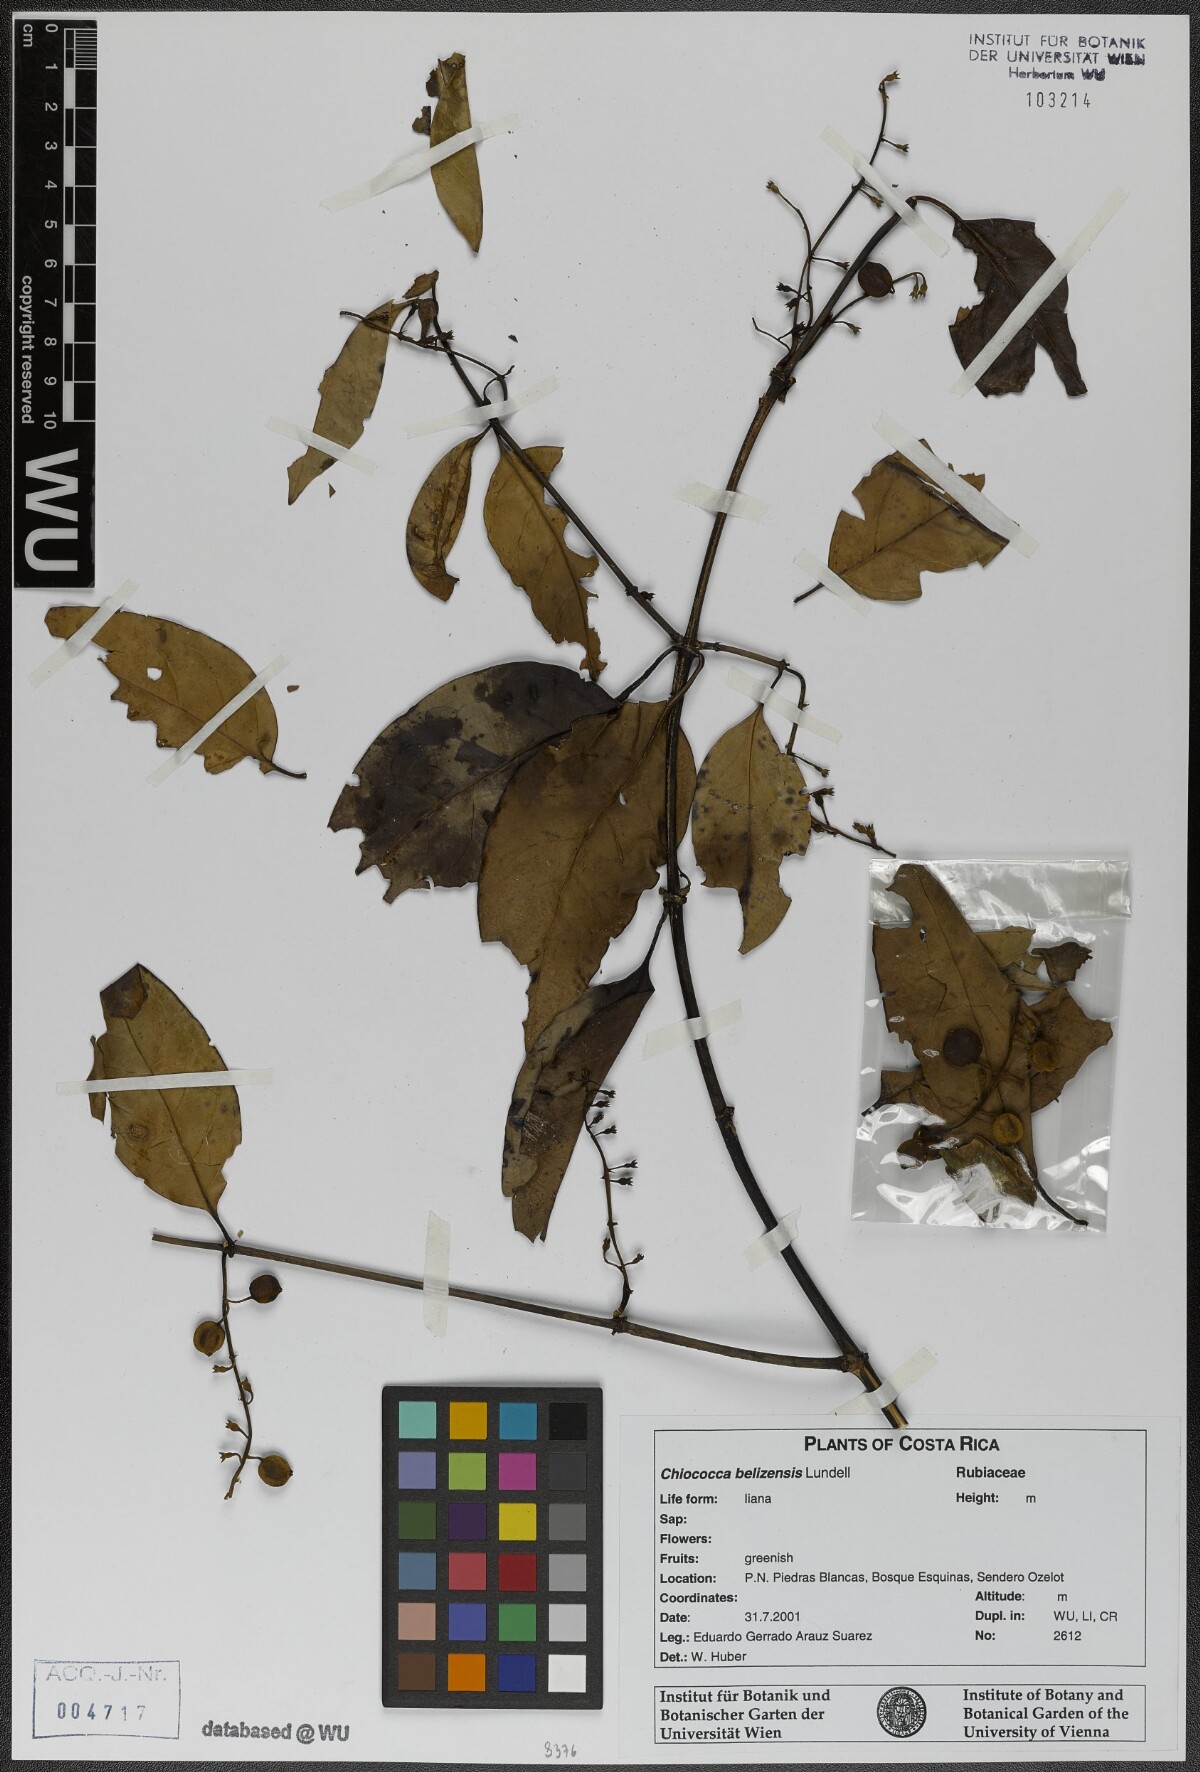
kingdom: Plantae
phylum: Tracheophyta
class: Magnoliopsida
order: Gentianales
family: Rubiaceae
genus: Chiococca
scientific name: Chiococca belizensis
